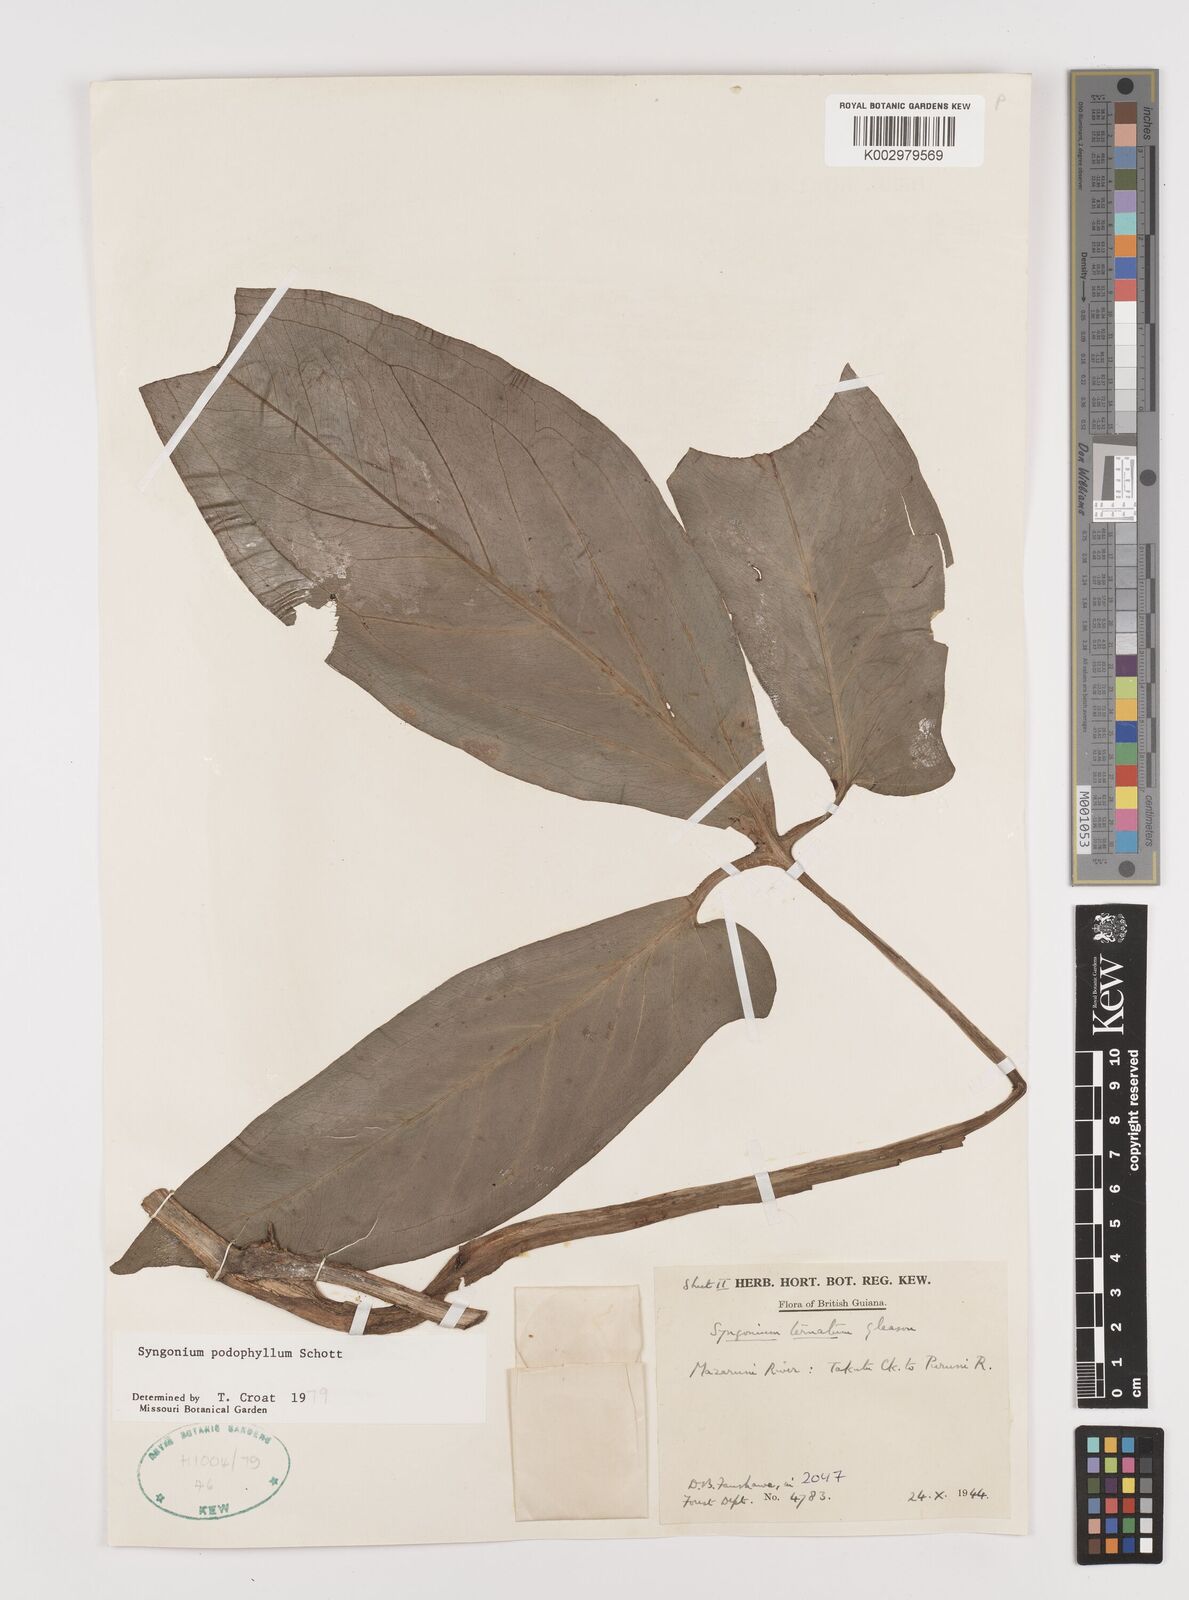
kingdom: Plantae
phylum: Tracheophyta
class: Liliopsida
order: Alismatales
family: Araceae
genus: Syngonium
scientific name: Syngonium podophyllum
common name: American evergreen
